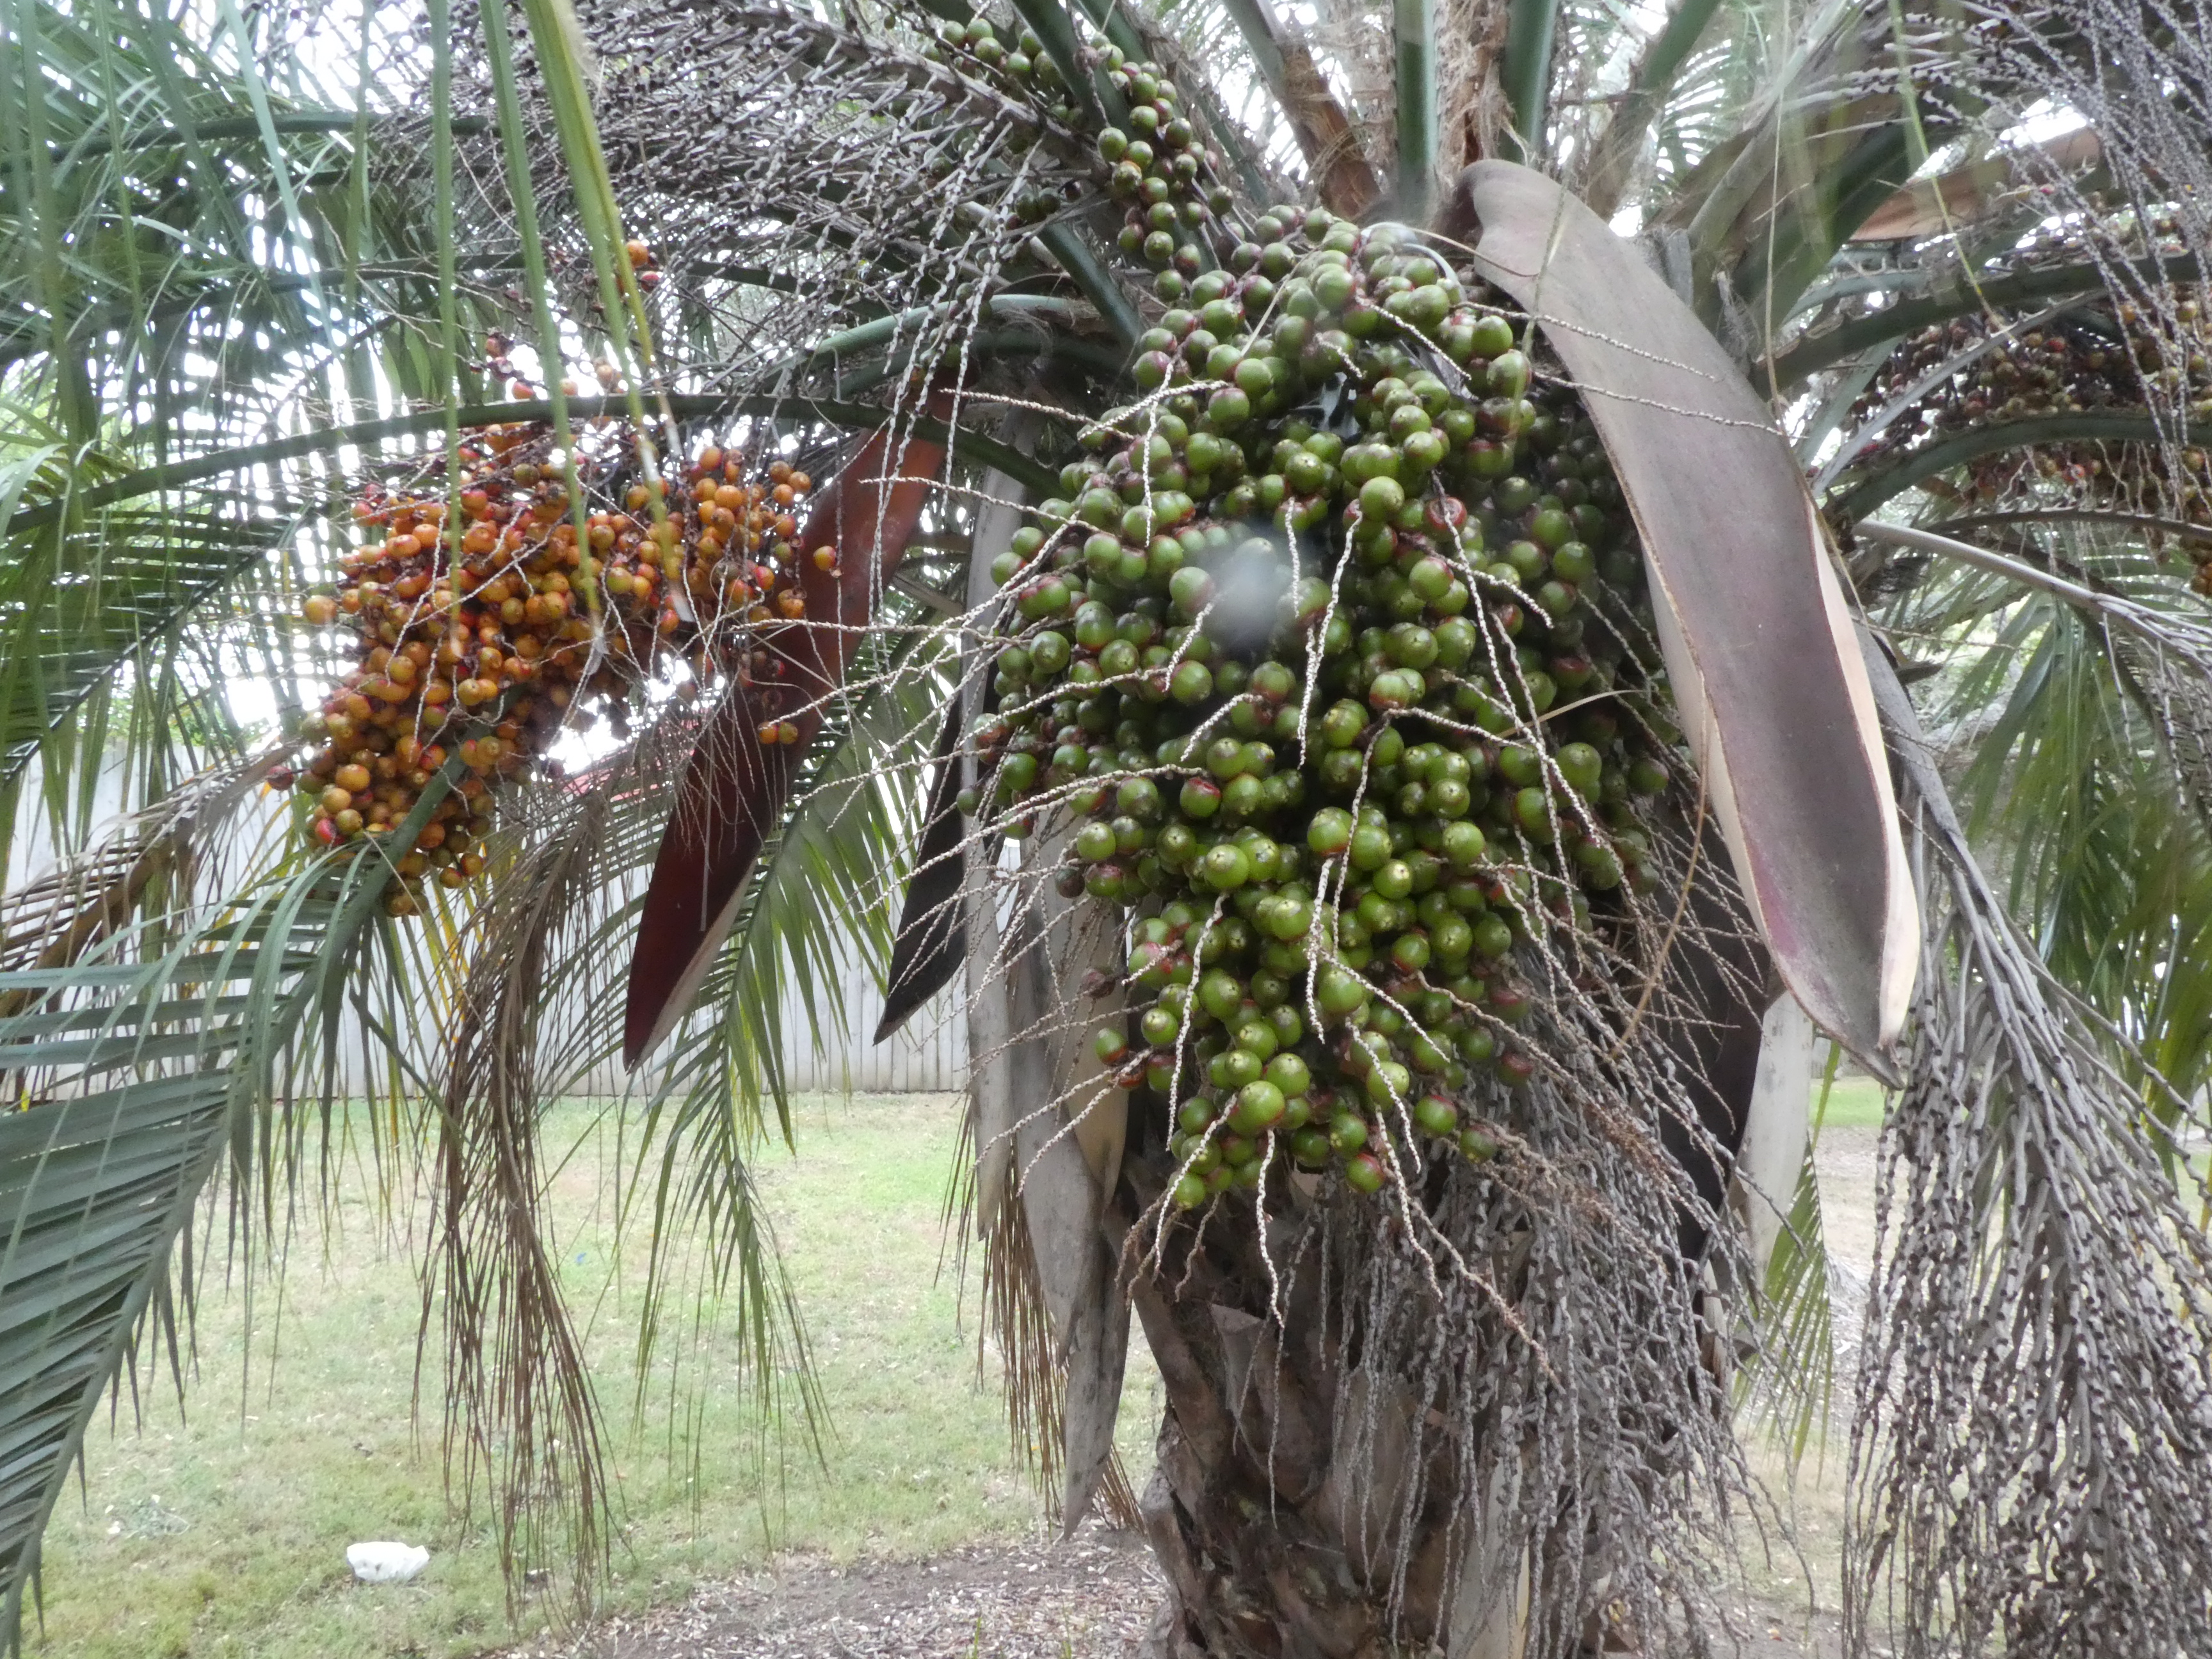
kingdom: Plantae
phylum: Tracheophyta
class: Liliopsida
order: Arecales
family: Arecaceae
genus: Butia
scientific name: Butia odorata
